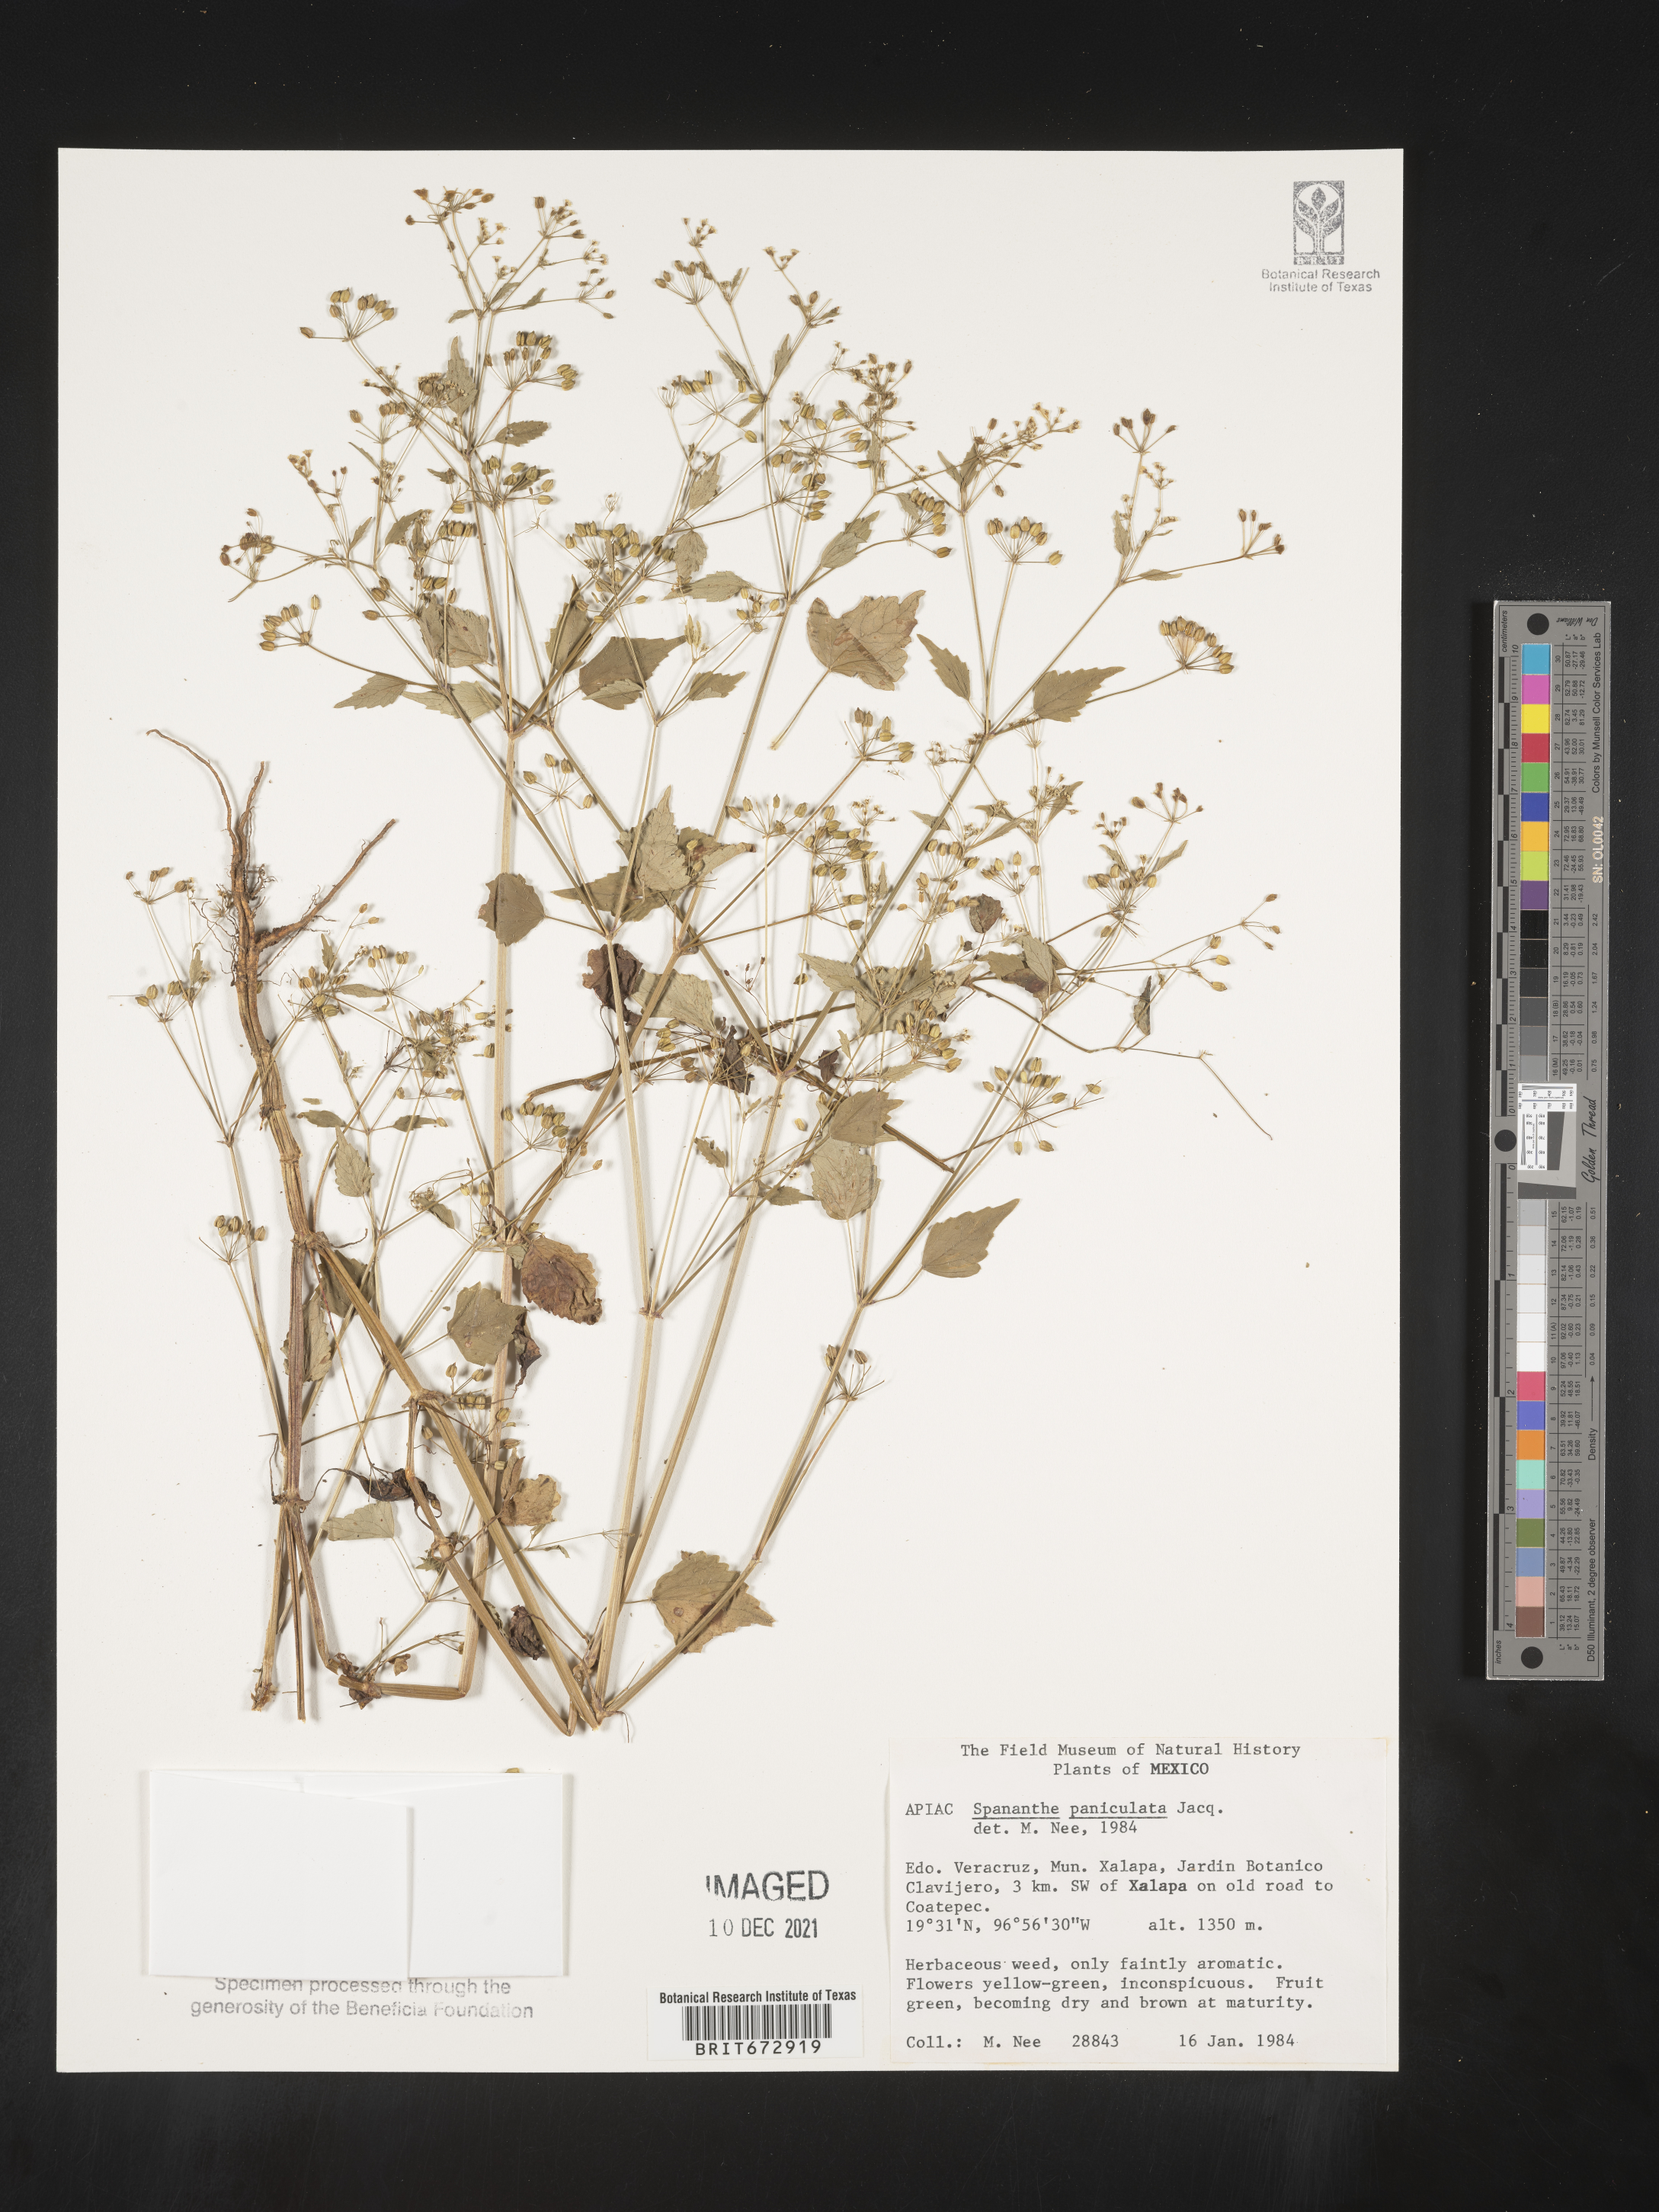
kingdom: Plantae
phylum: Tracheophyta
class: Magnoliopsida
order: Apiales
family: Apiaceae
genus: Spananthe
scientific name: Spananthe
